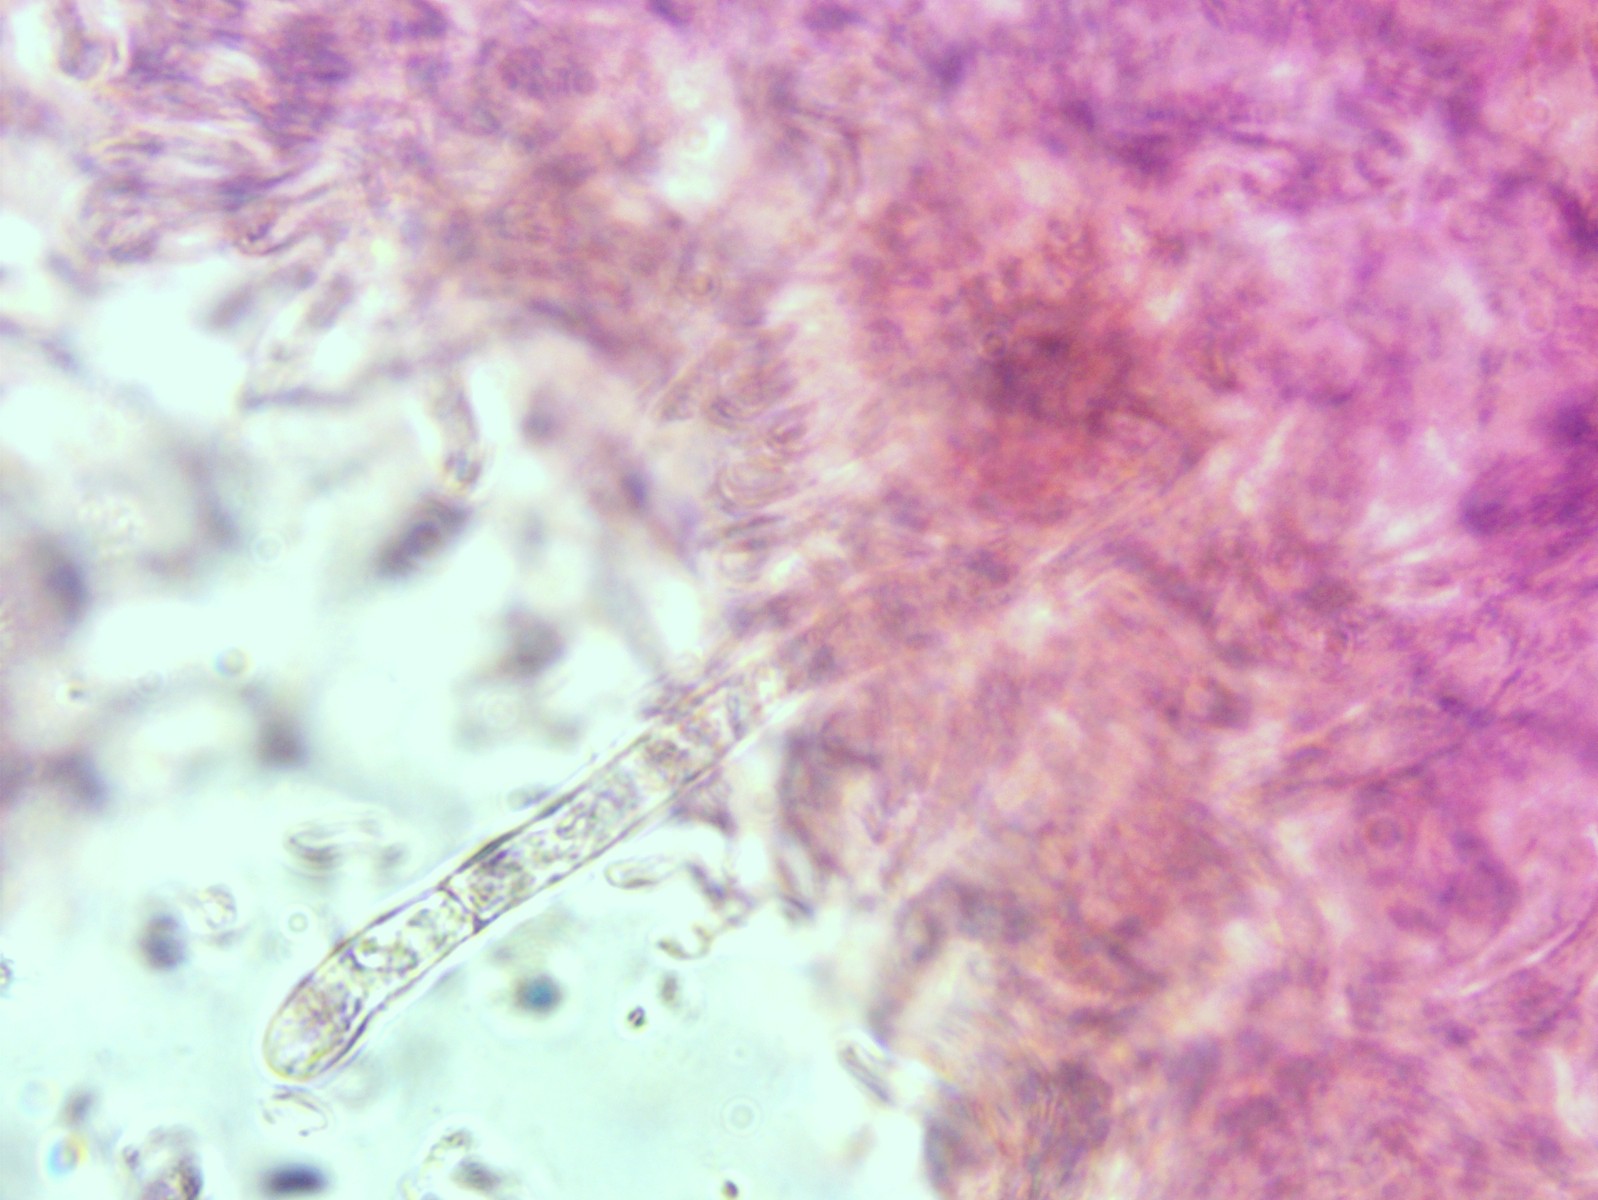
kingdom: Fungi
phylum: Basidiomycota
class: Agaricomycetes
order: Russulales
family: Russulaceae
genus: Russula
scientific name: Russula velenovskyi
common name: orangerød skørhat
